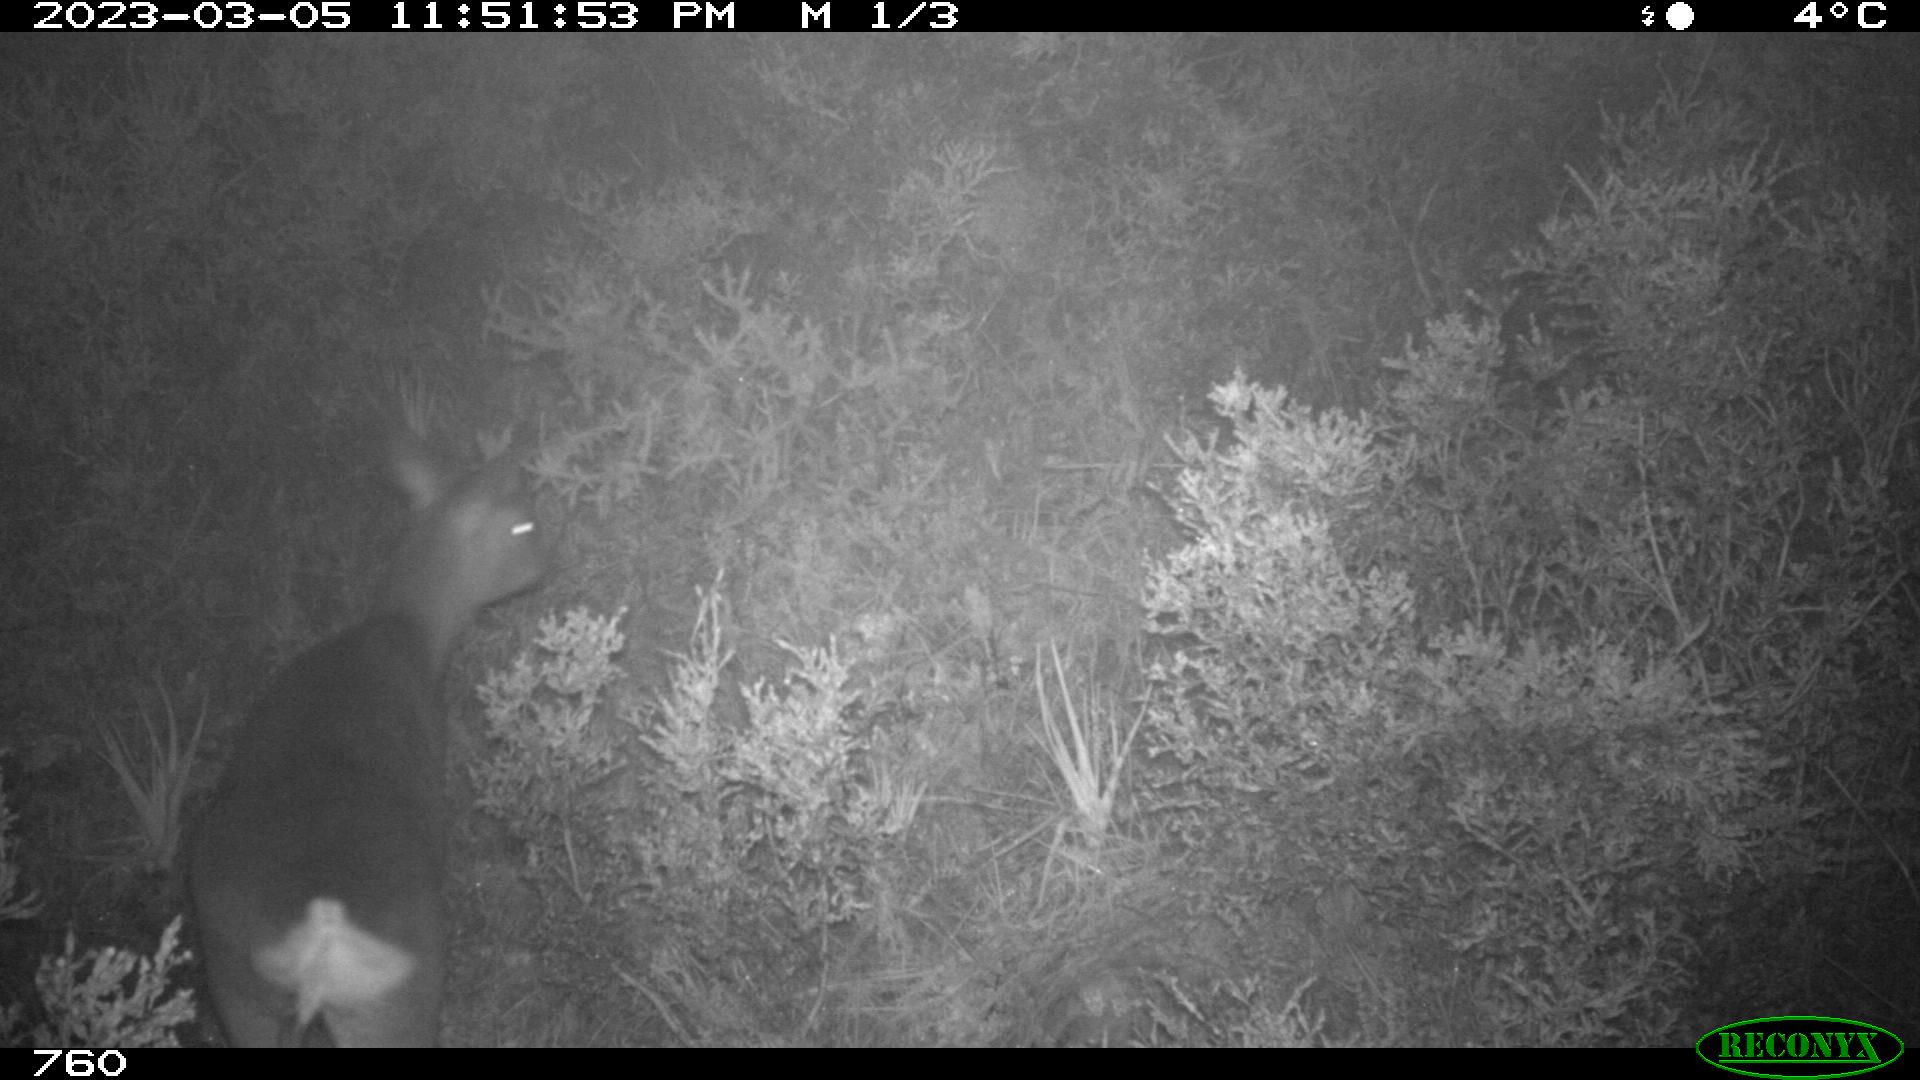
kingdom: Animalia
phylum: Chordata
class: Mammalia
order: Artiodactyla
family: Cervidae
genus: Capreolus
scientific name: Capreolus capreolus
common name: Western roe deer
